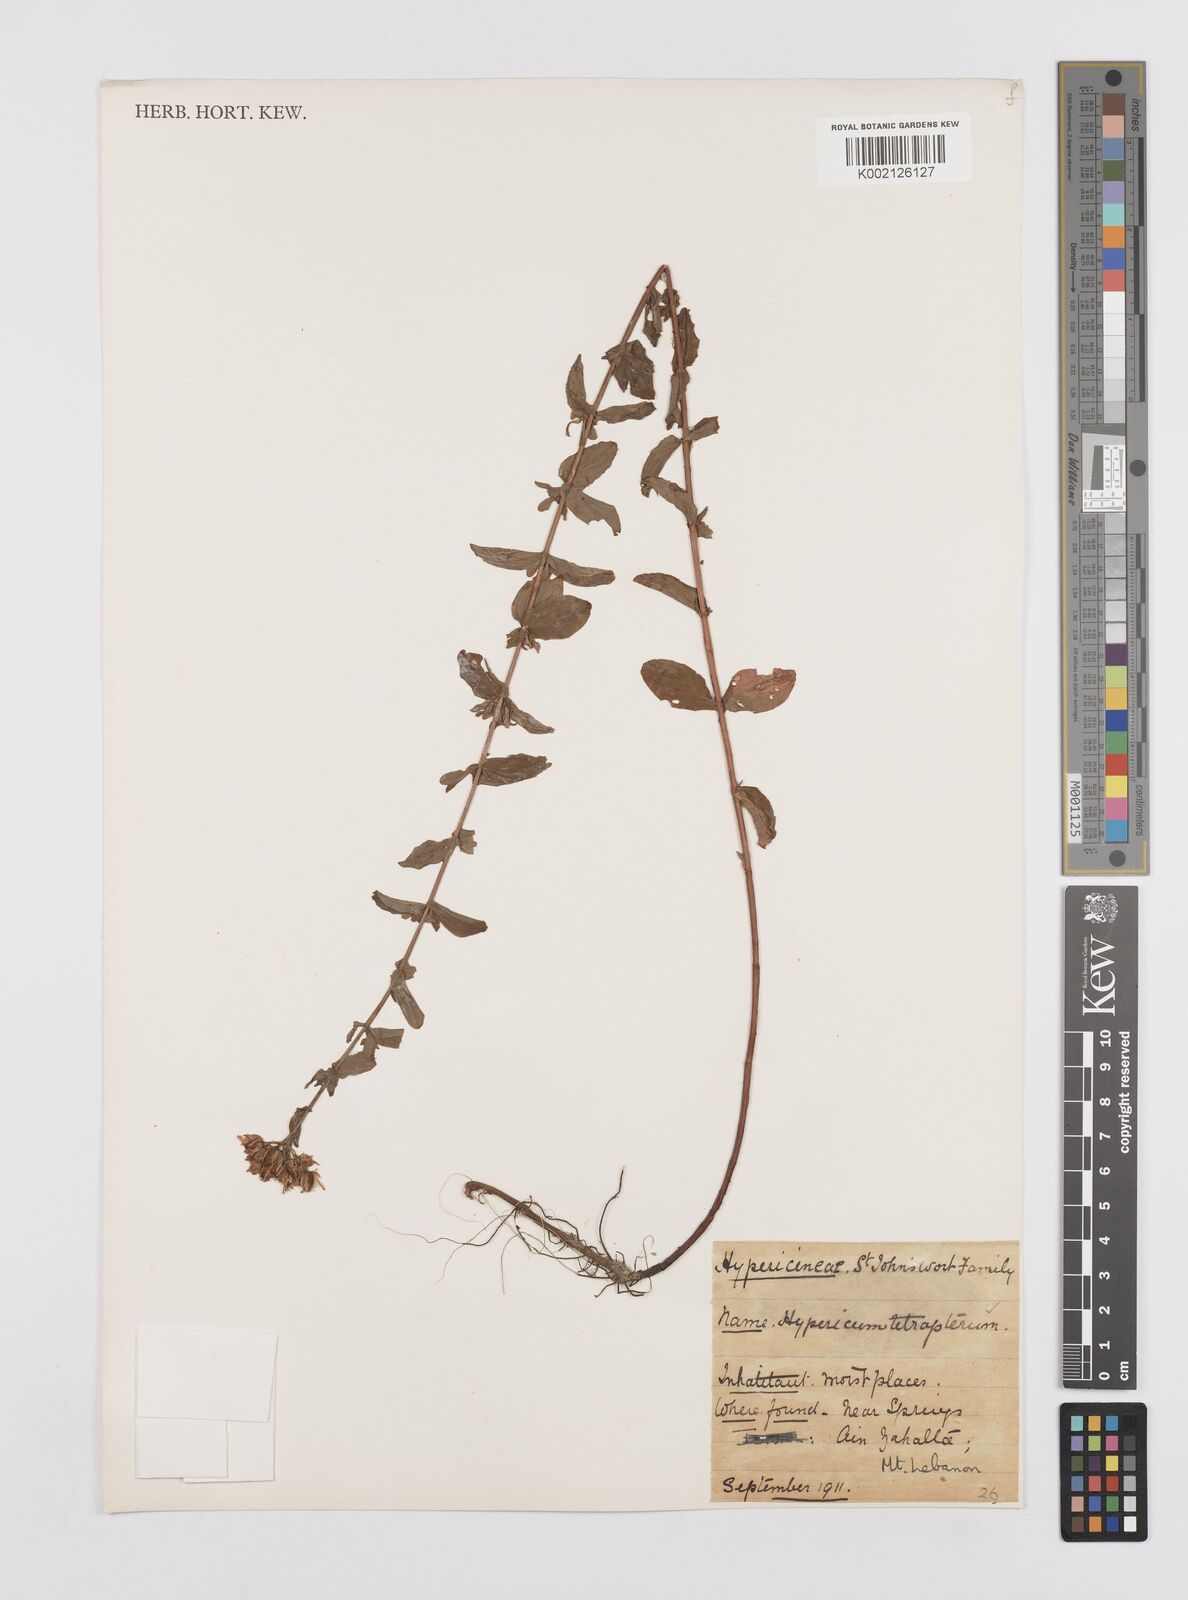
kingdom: Plantae
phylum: Tracheophyta
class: Magnoliopsida
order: Malpighiales
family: Hypericaceae
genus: Hypericum
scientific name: Hypericum tetrapterum
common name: Square-stalked st. john's-wort
